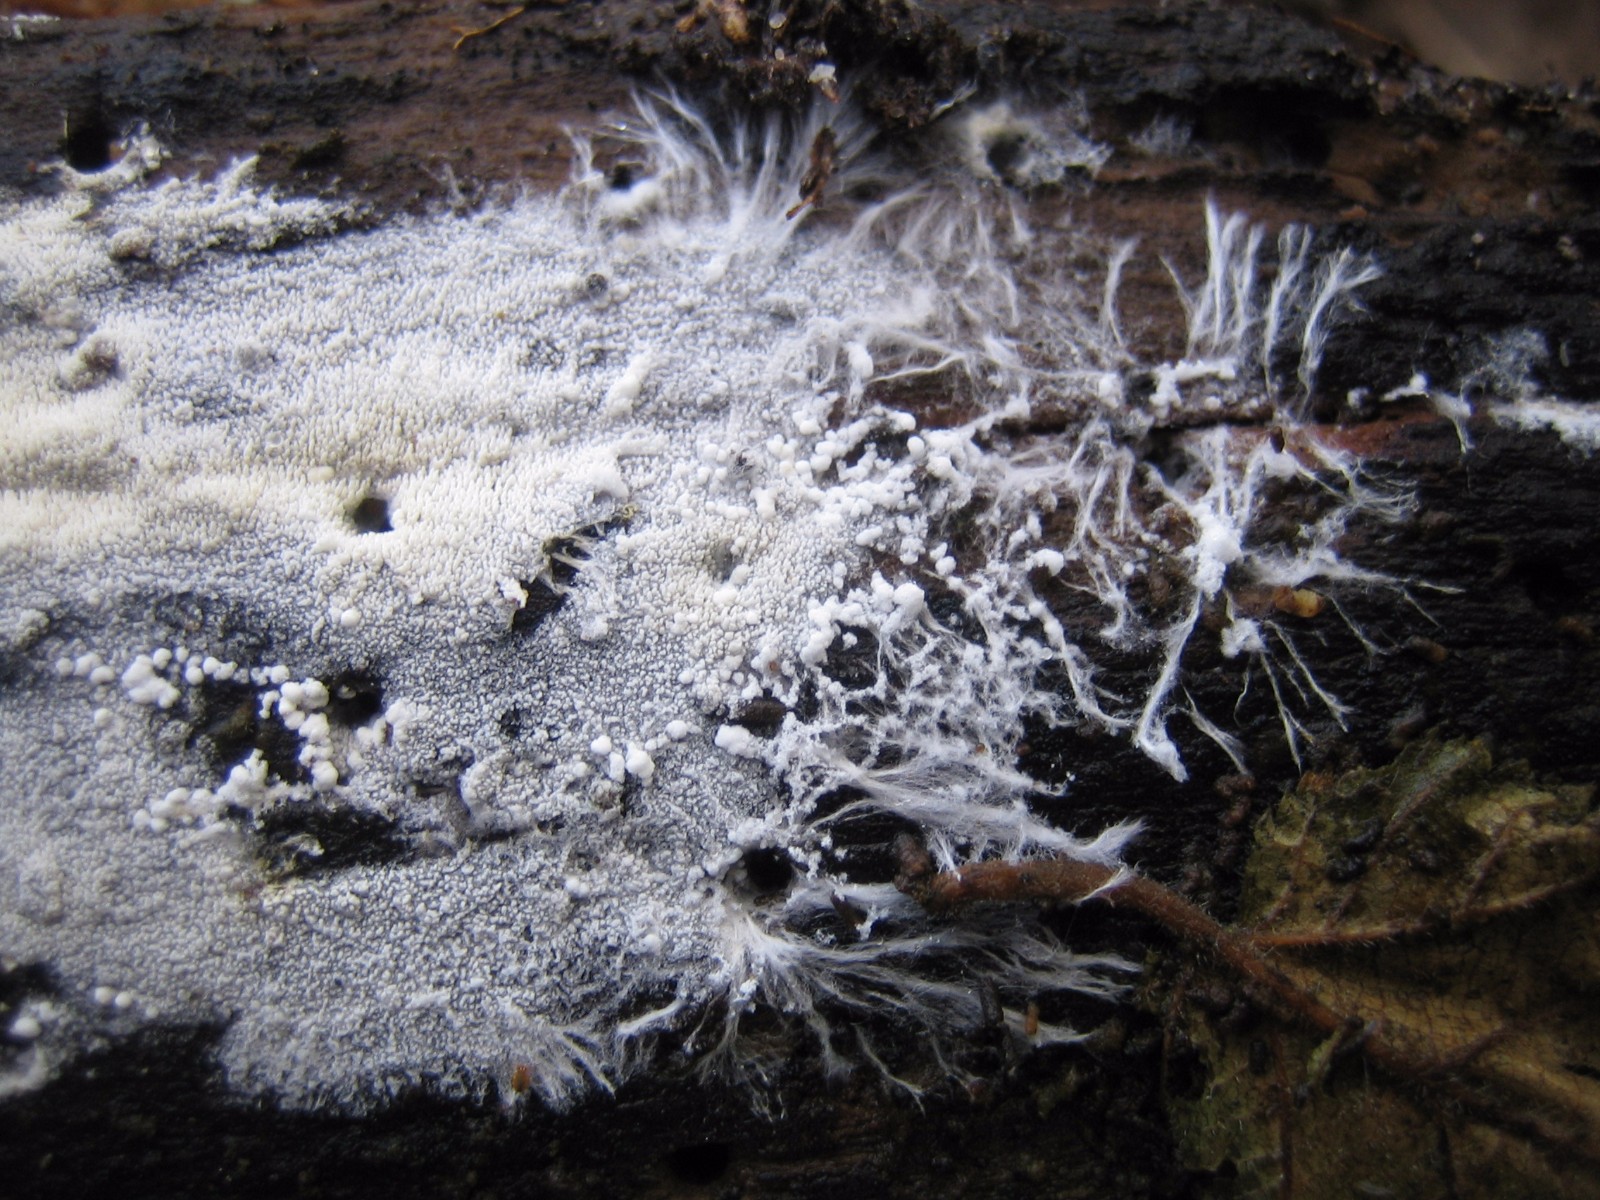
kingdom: Fungi
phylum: Basidiomycota
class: Agaricomycetes
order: Trechisporales
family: Sistotremataceae
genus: Trechispora
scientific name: Trechispora stevensonii
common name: støvende vathinde
